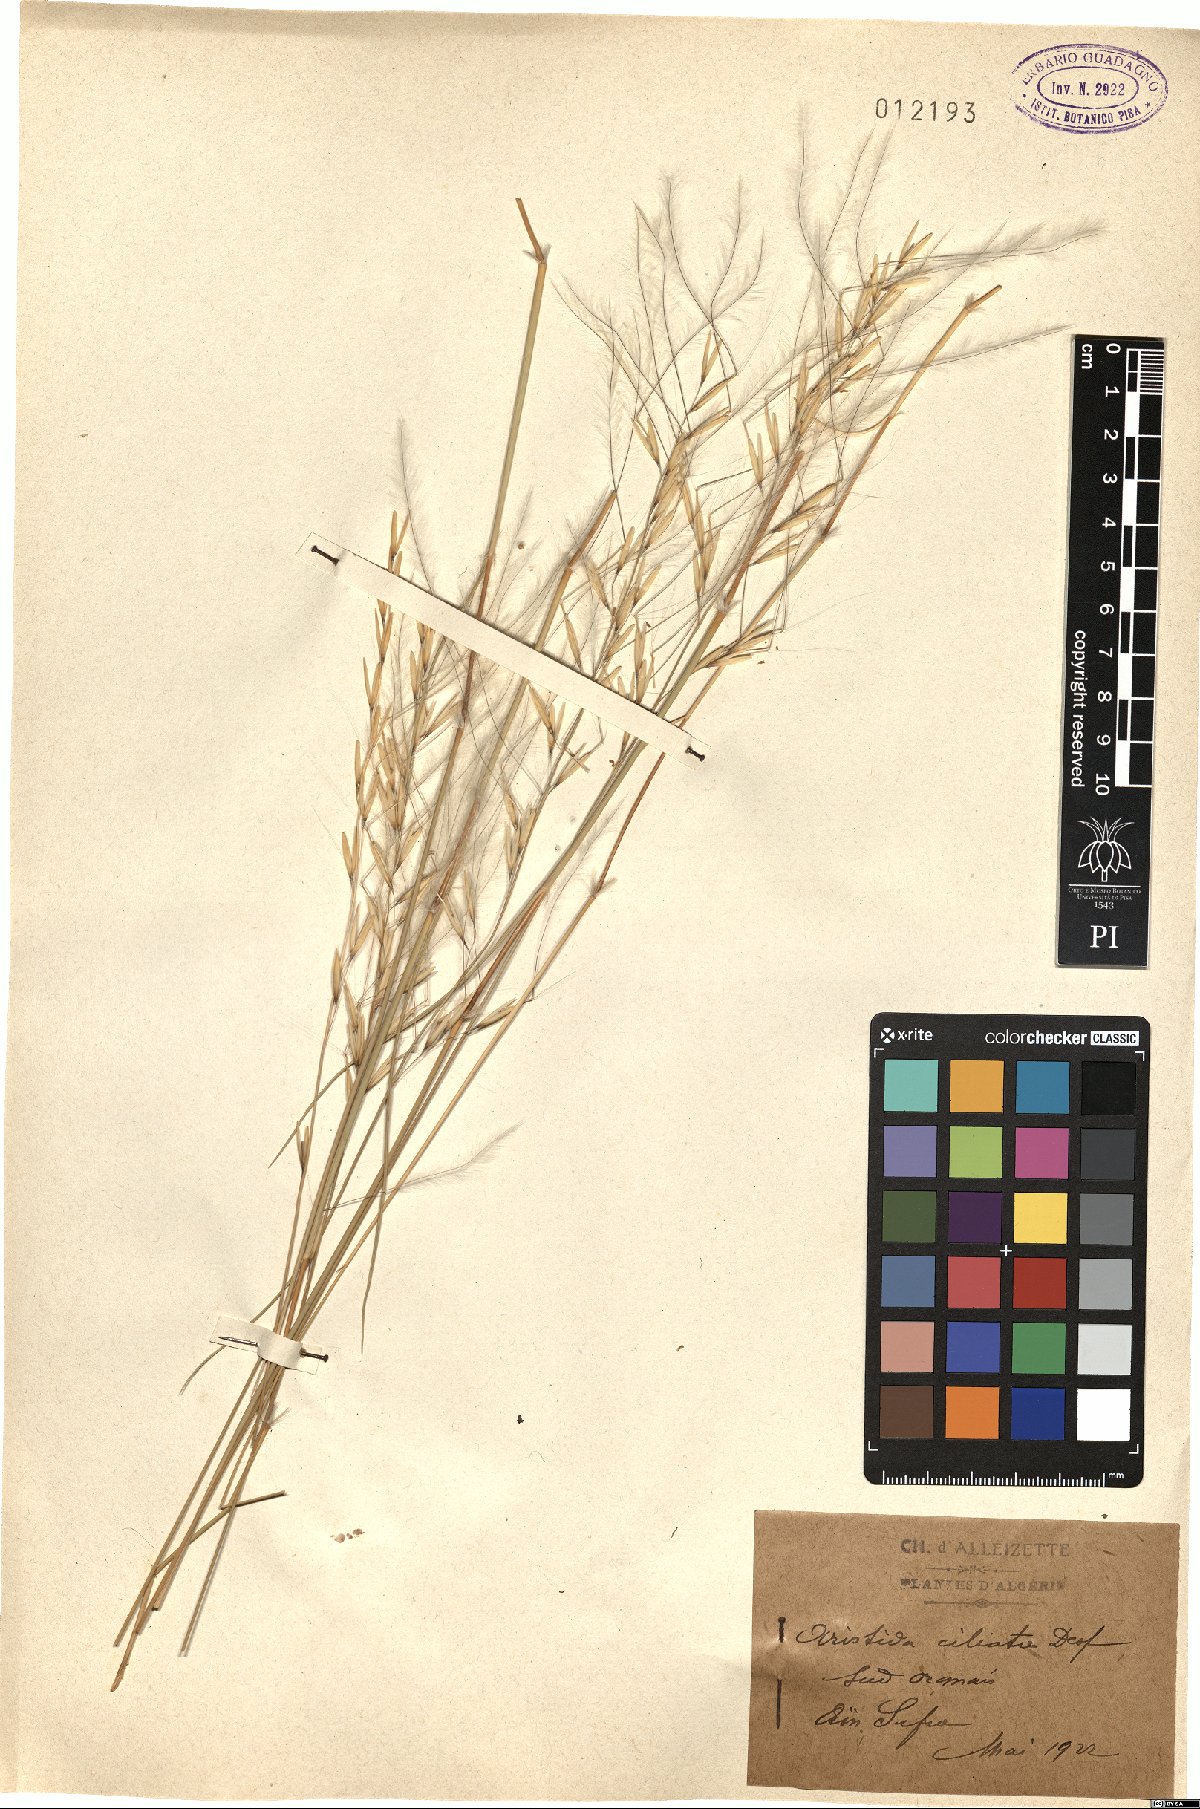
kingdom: Plantae
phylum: Tracheophyta
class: Liliopsida
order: Poales
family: Poaceae
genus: Stipagrostis
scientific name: Stipagrostis ciliata
